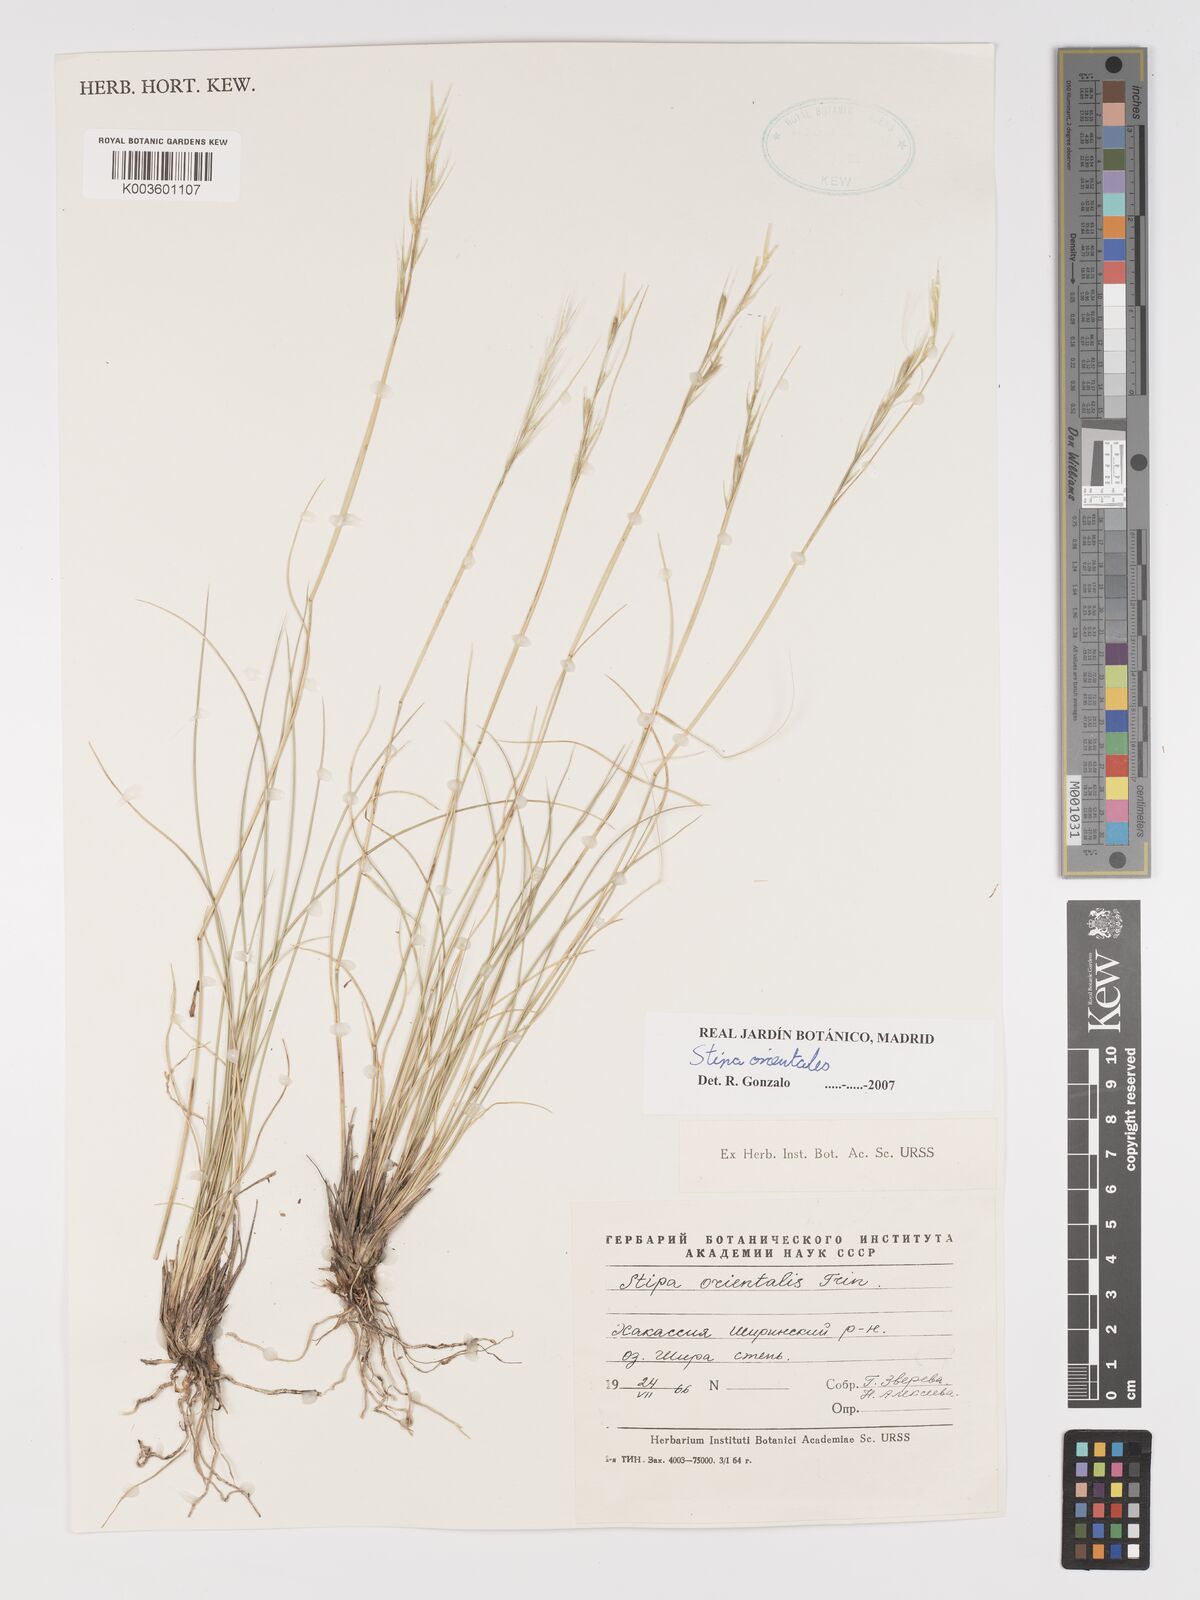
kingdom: Plantae
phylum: Tracheophyta
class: Liliopsida
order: Poales
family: Poaceae
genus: Stipa
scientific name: Stipa orientalis
